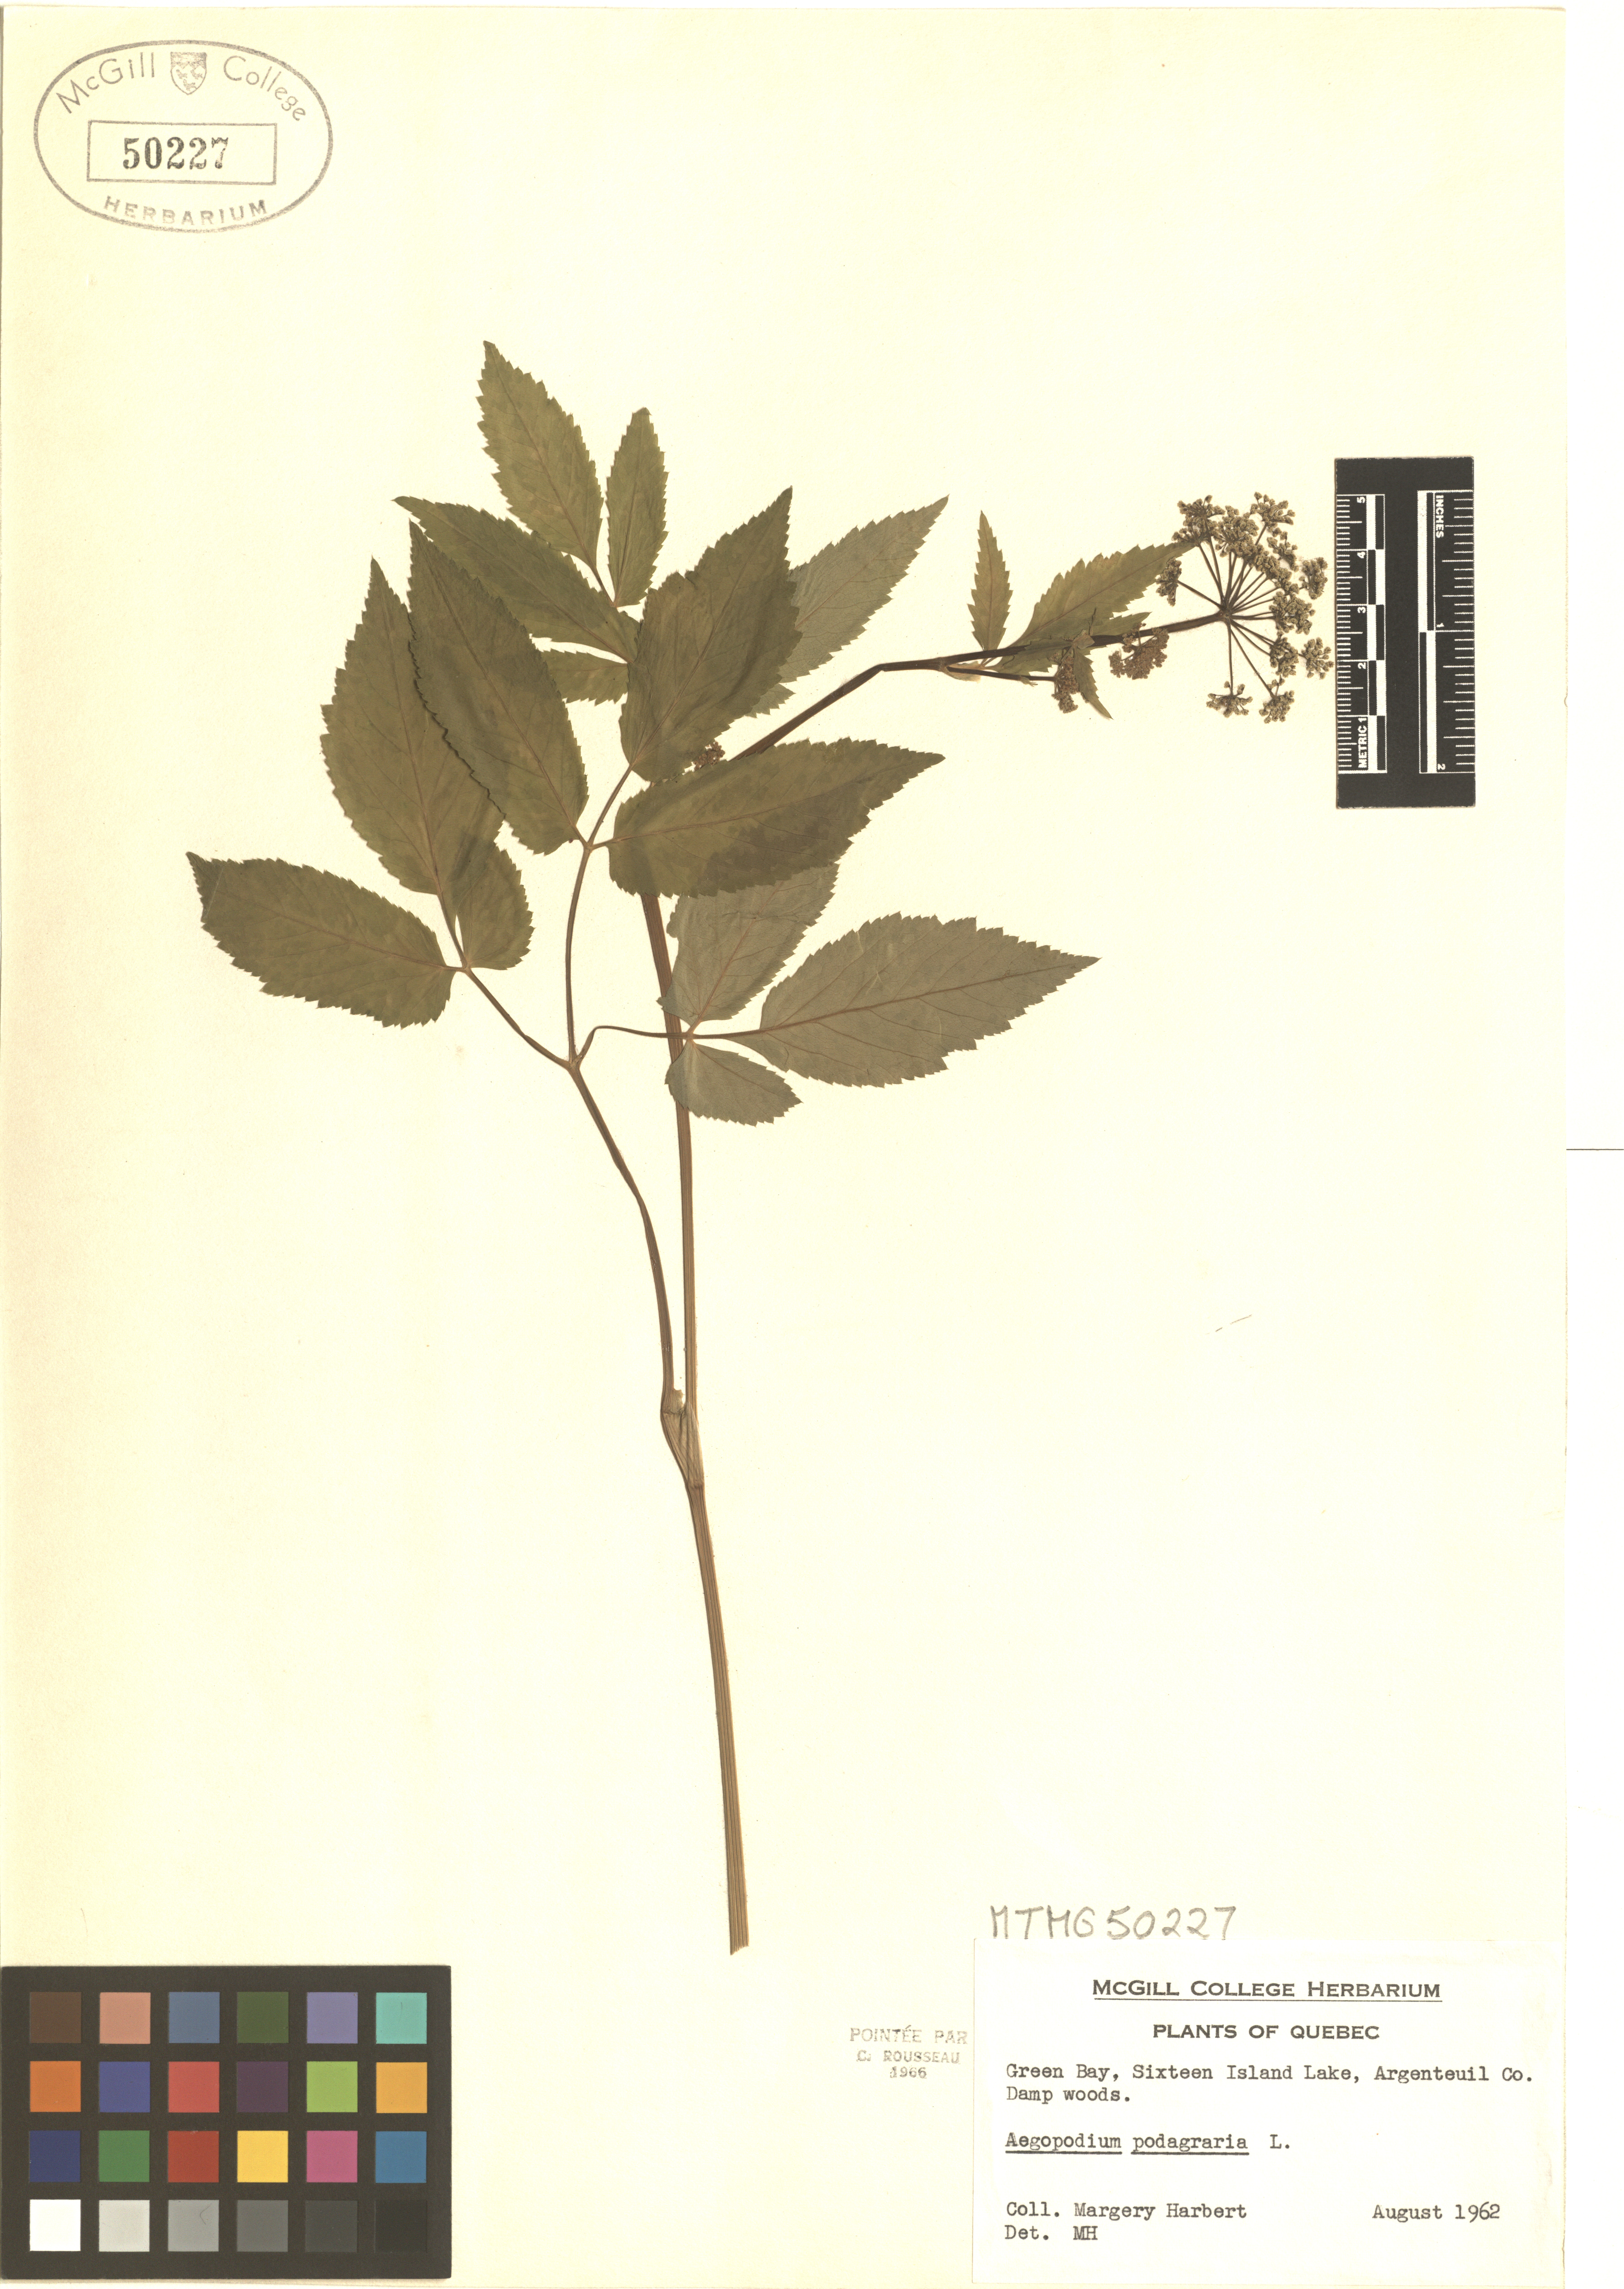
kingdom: Plantae
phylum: Tracheophyta
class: Magnoliopsida
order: Apiales
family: Apiaceae
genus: Aegopodium
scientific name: Aegopodium podagraria
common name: Ground-elder
